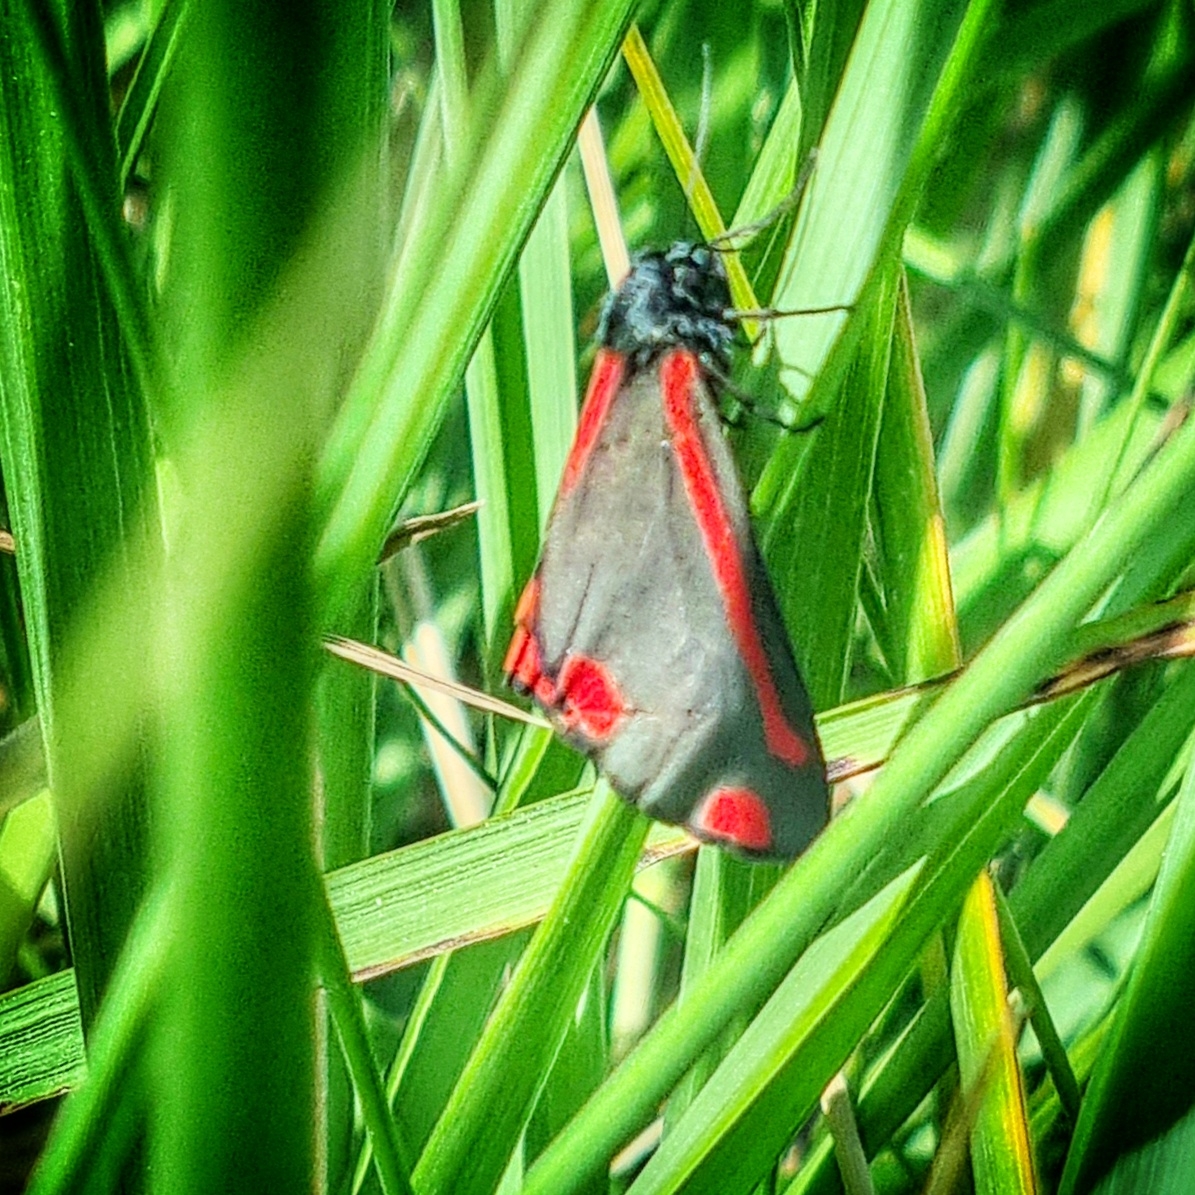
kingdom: Animalia
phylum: Arthropoda
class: Insecta
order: Lepidoptera
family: Erebidae
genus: Tyria
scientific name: Tyria jacobaeae
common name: Blodplet
